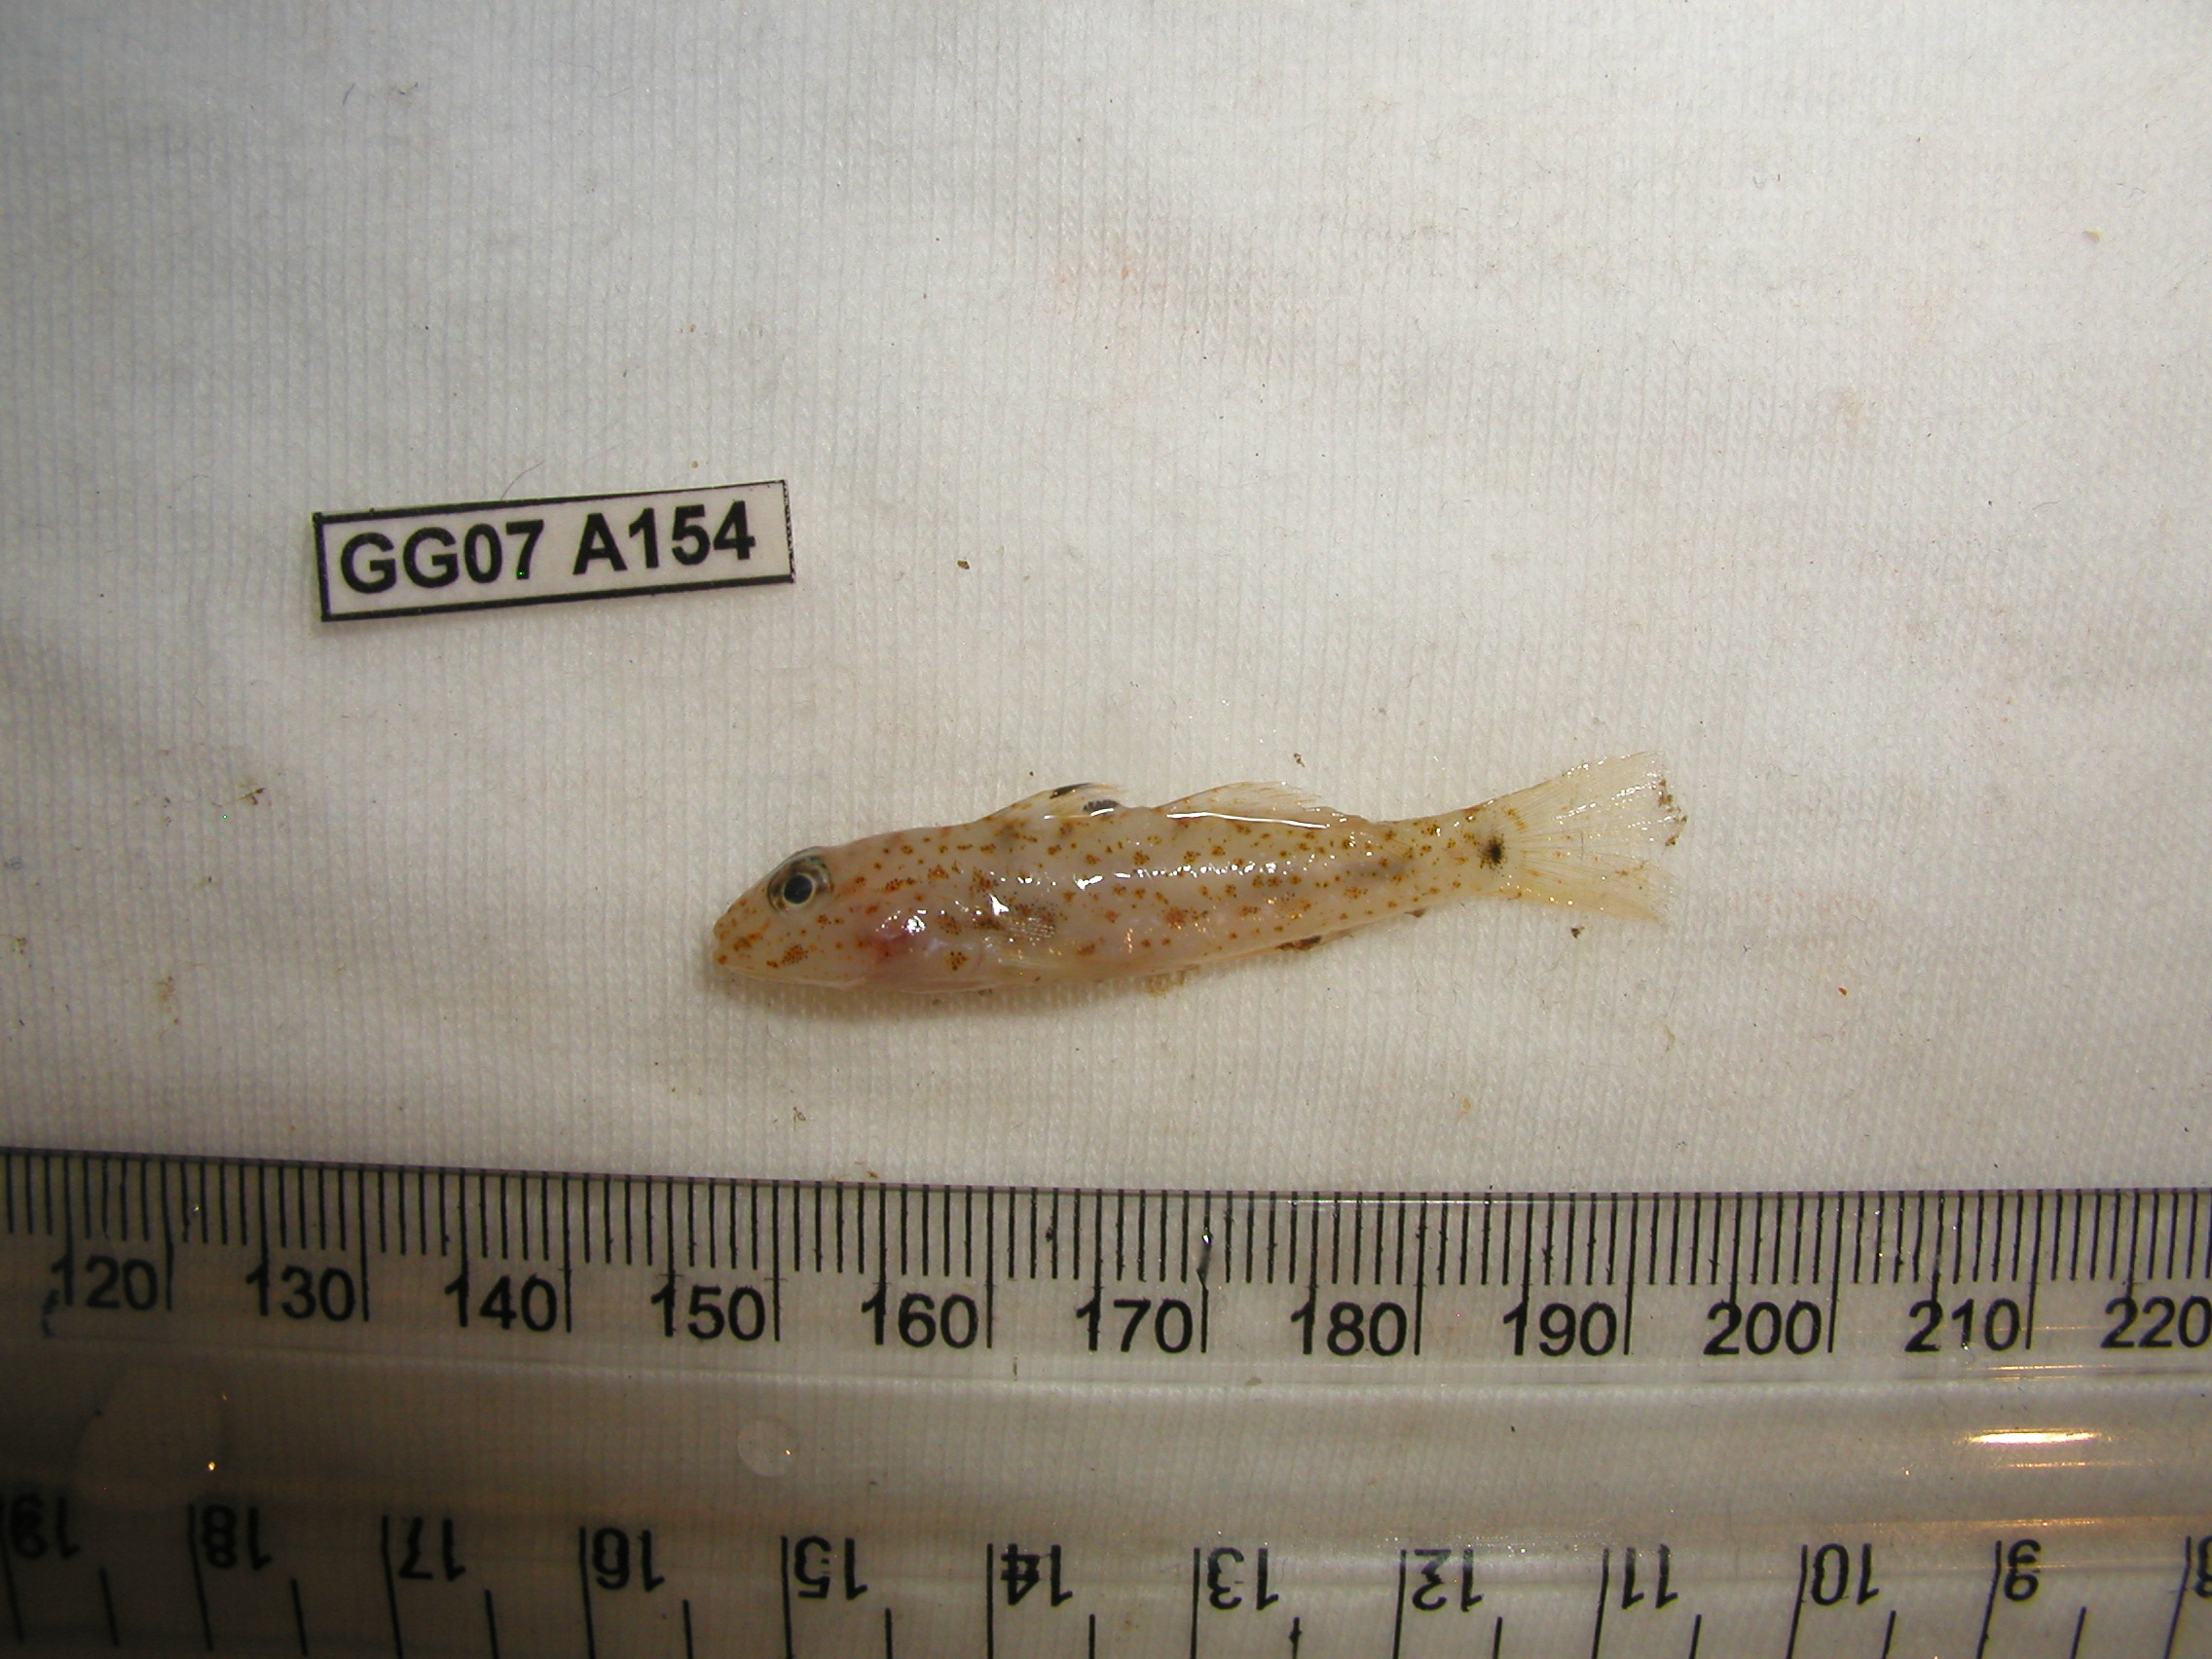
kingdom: Animalia
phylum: Chordata
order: Perciformes
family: Gobiidae
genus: Fusigobius
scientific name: Fusigobius duospilus
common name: Twospot goby
